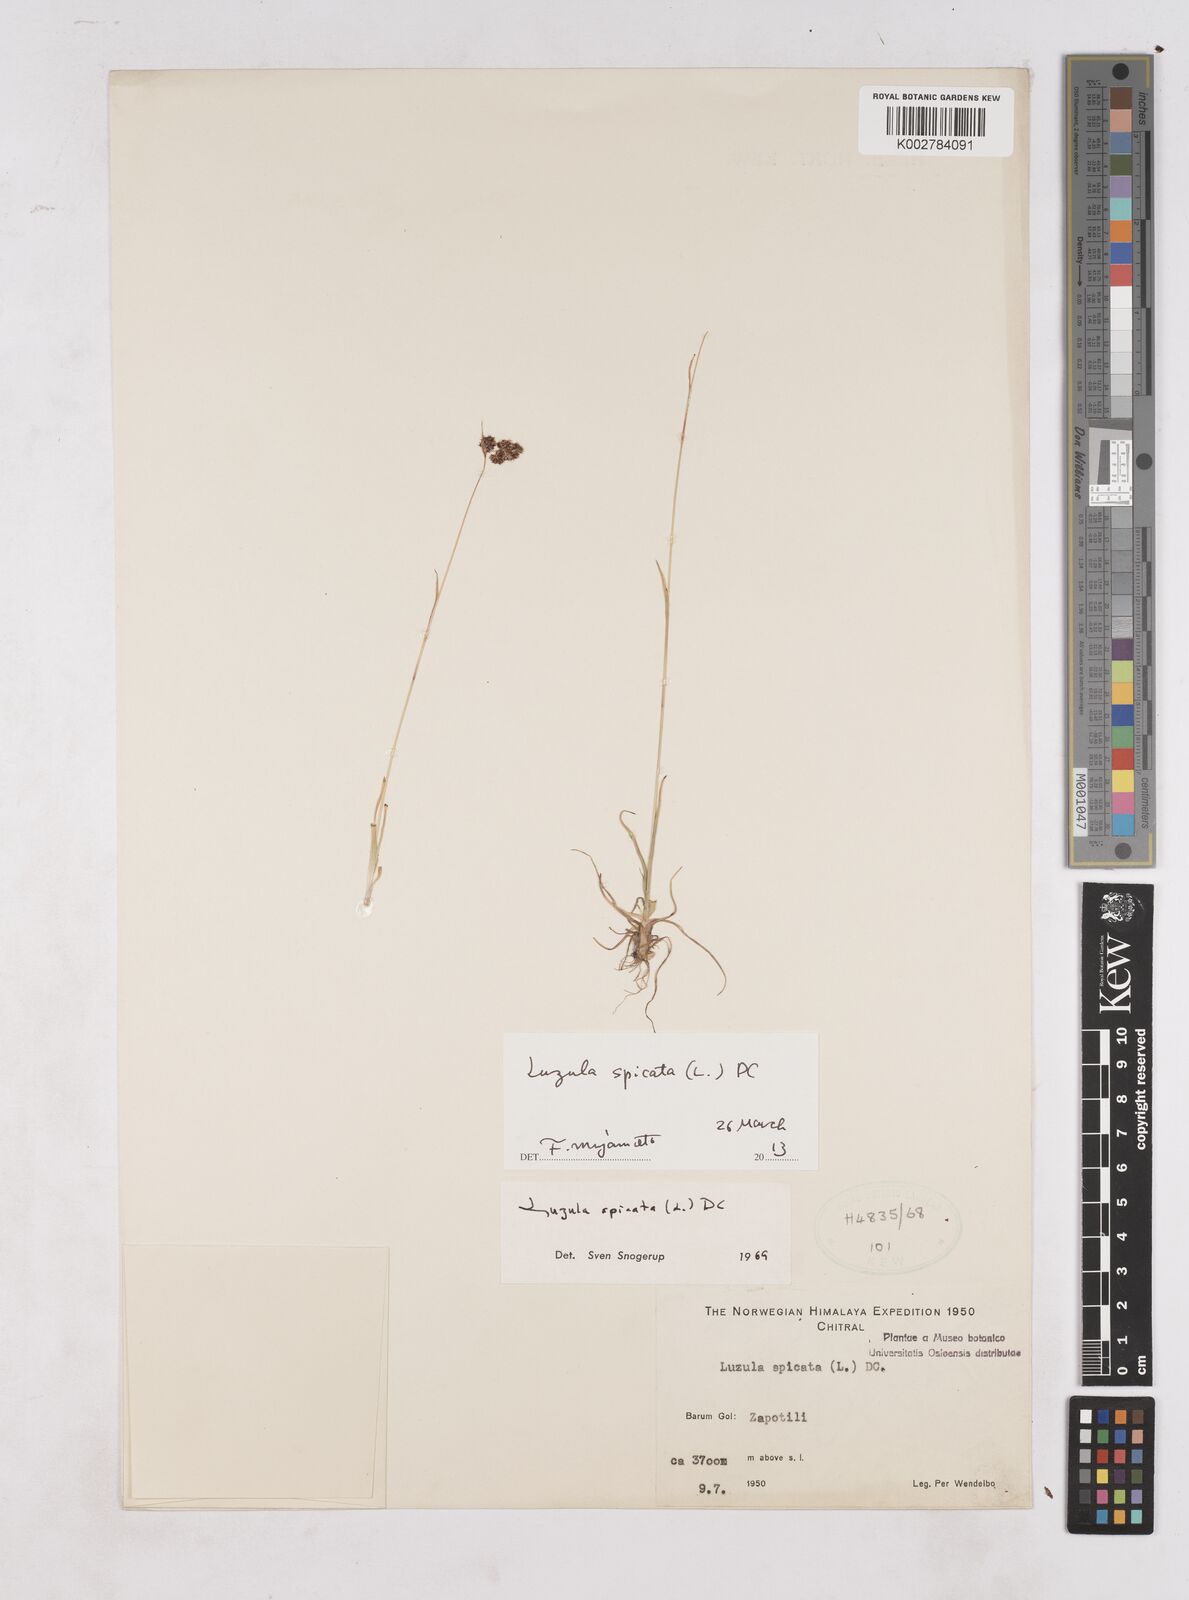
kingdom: Plantae
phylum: Tracheophyta
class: Liliopsida
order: Poales
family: Juncaceae
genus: Luzula
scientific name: Luzula spicata
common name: Spiked wood-rush
